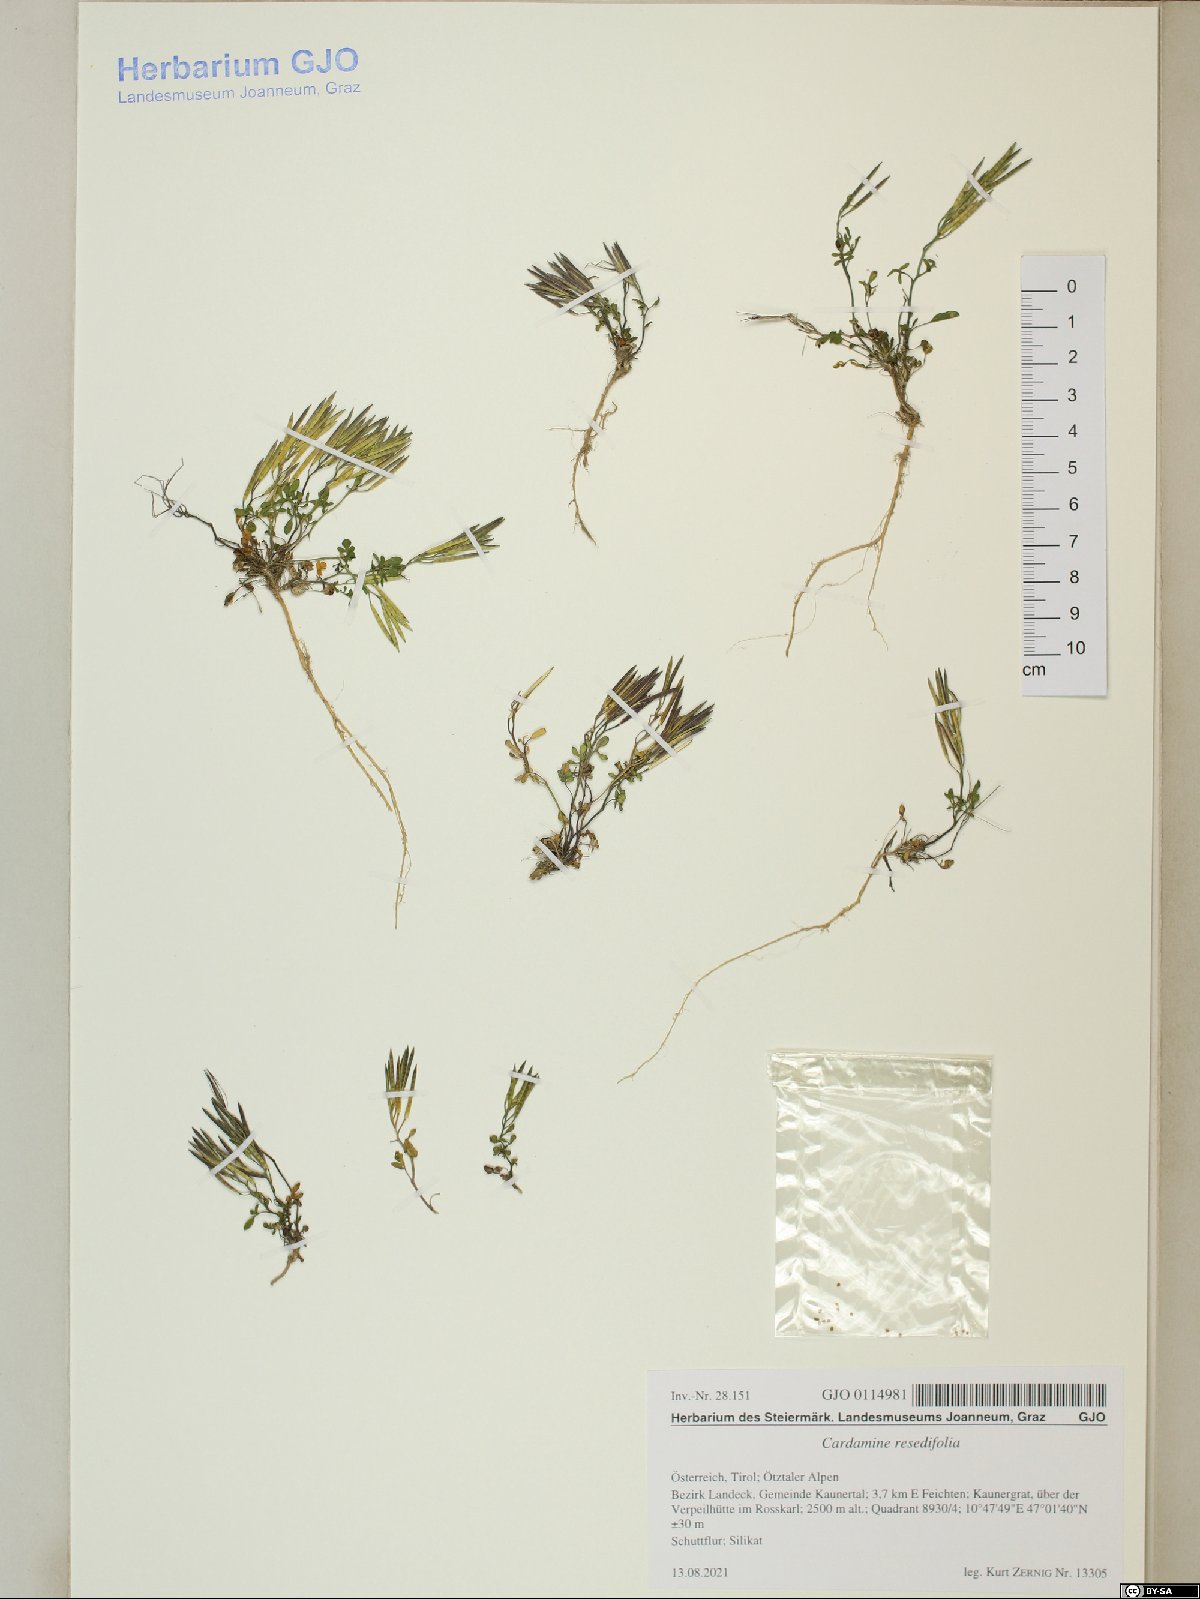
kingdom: Plantae
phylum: Tracheophyta
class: Magnoliopsida
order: Brassicales
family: Brassicaceae
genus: Cardamine
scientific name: Cardamine resedifolia
